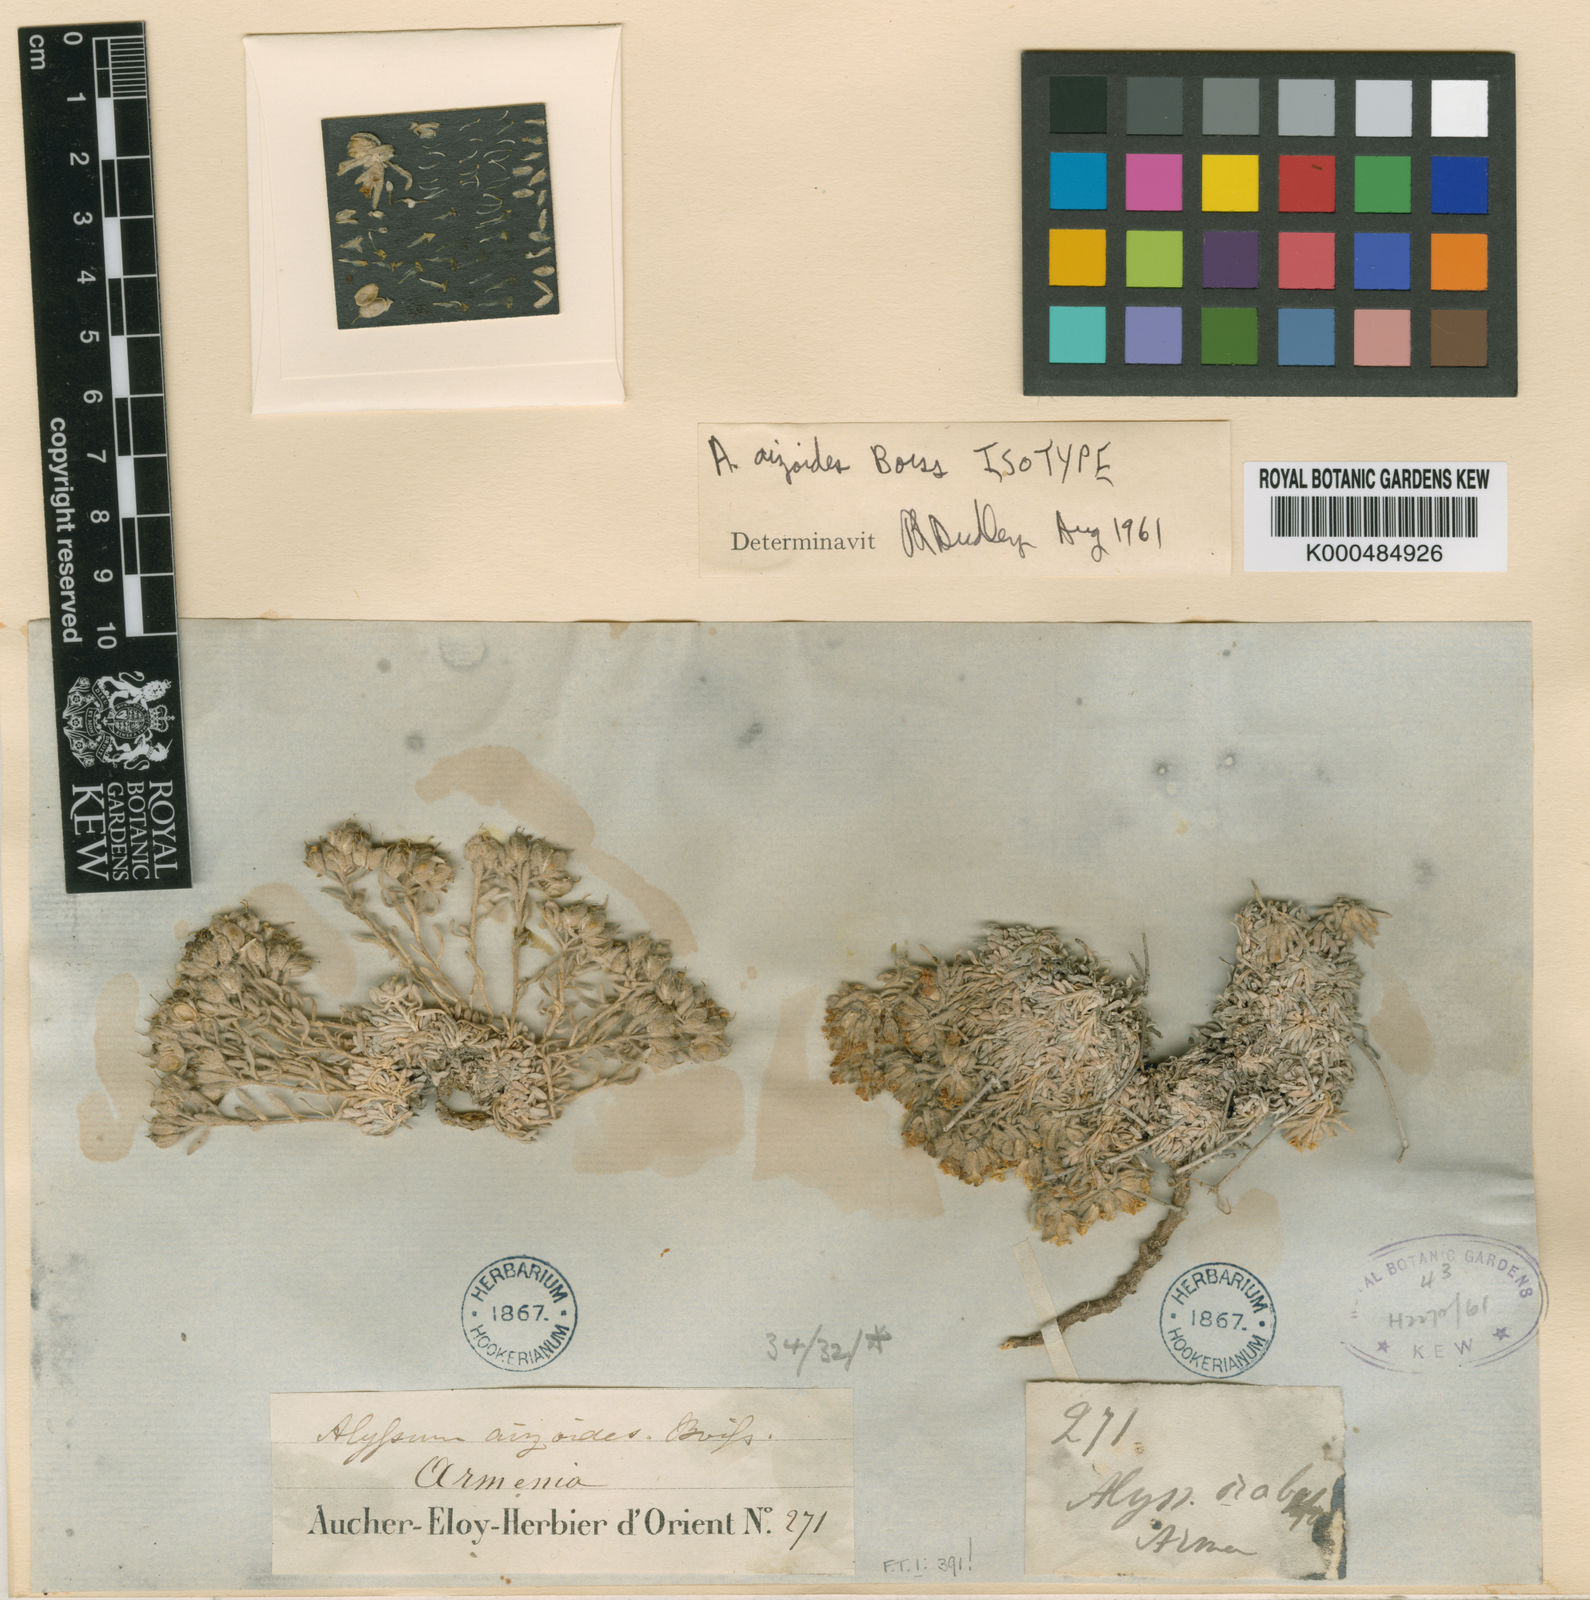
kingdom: Plantae
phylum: Tracheophyta
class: Magnoliopsida
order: Brassicales
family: Brassicaceae
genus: Alyssum
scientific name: Alyssum aizoides
